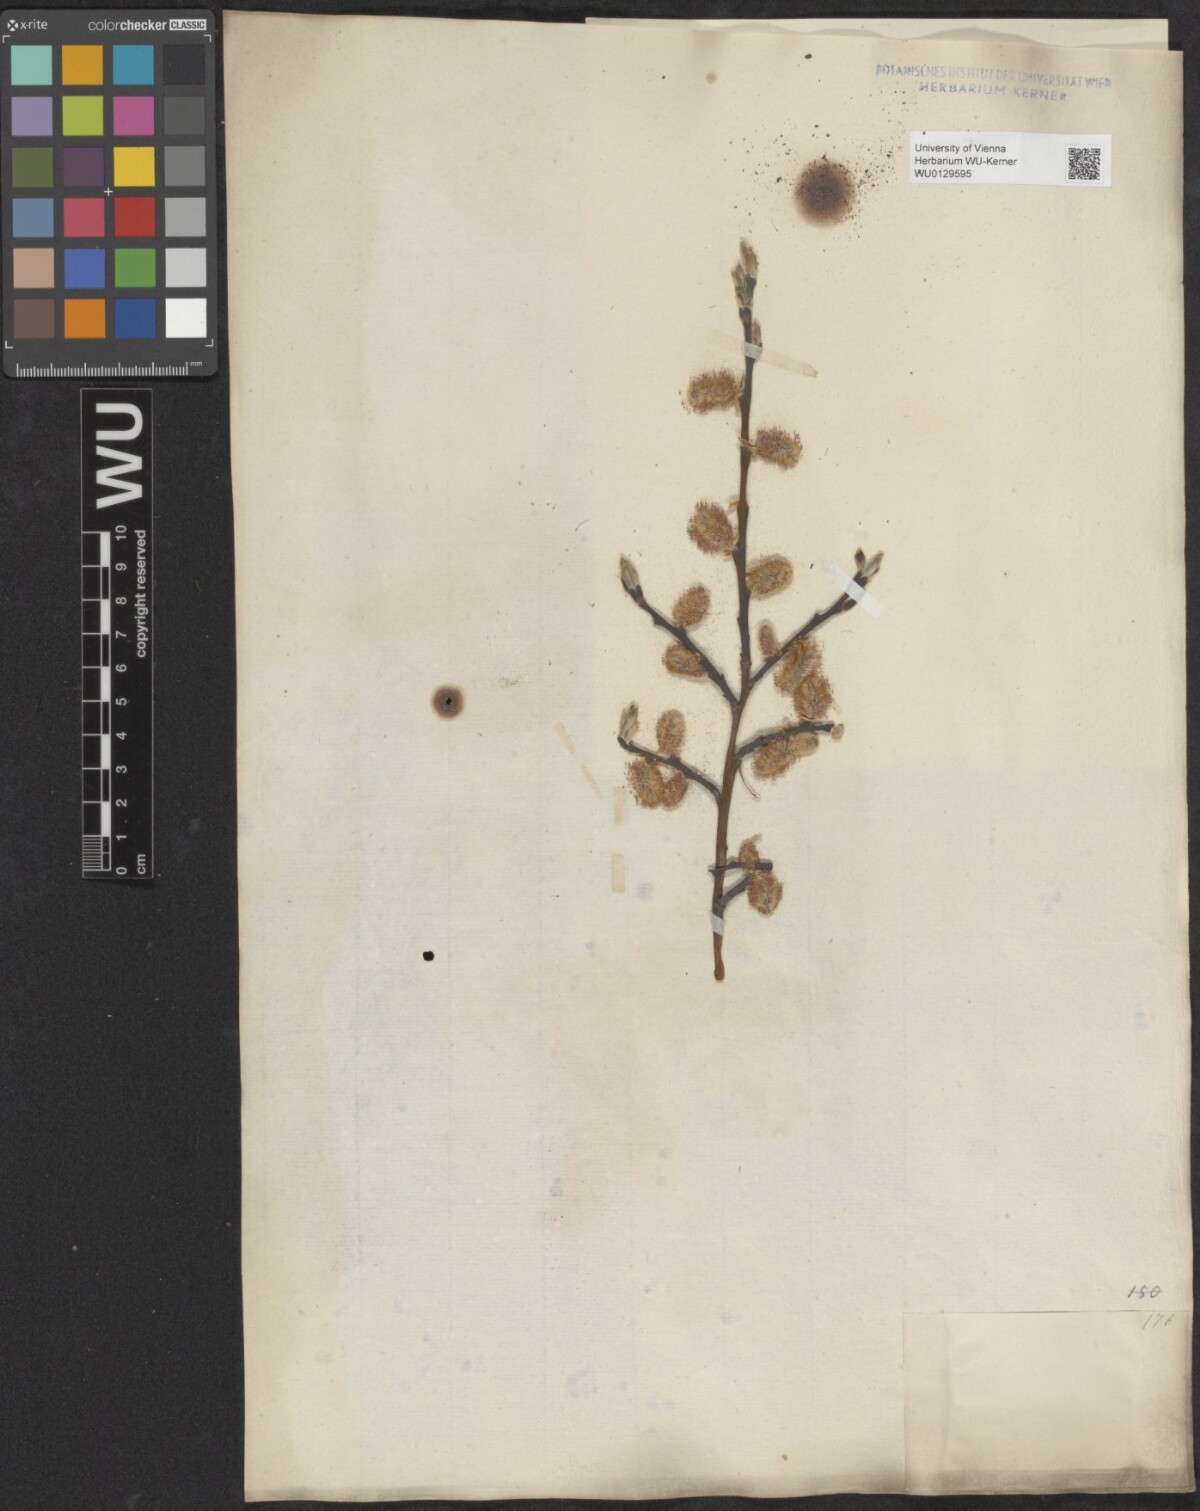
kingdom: Plantae
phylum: Tracheophyta
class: Magnoliopsida
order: Malpighiales
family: Salicaceae
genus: Salix
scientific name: Salix caprea
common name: Goat willow
